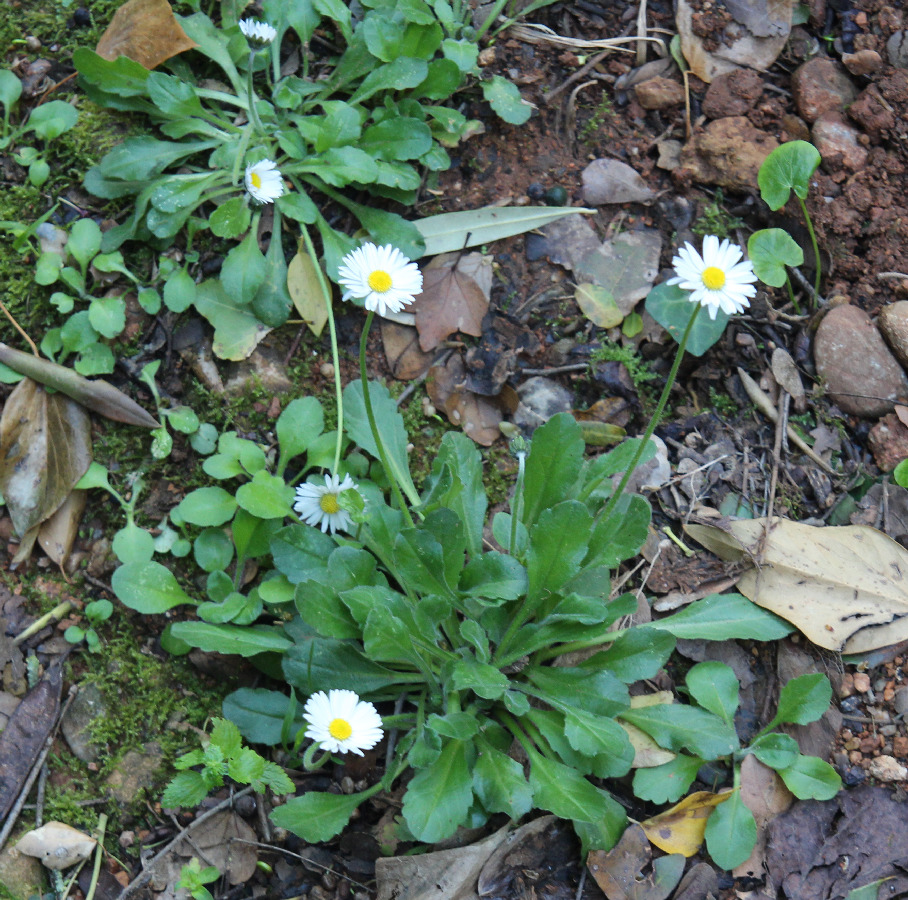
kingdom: Plantae
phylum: Tracheophyta
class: Magnoliopsida
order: Asterales
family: Asteraceae
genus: Bellis
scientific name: Bellis perennis
